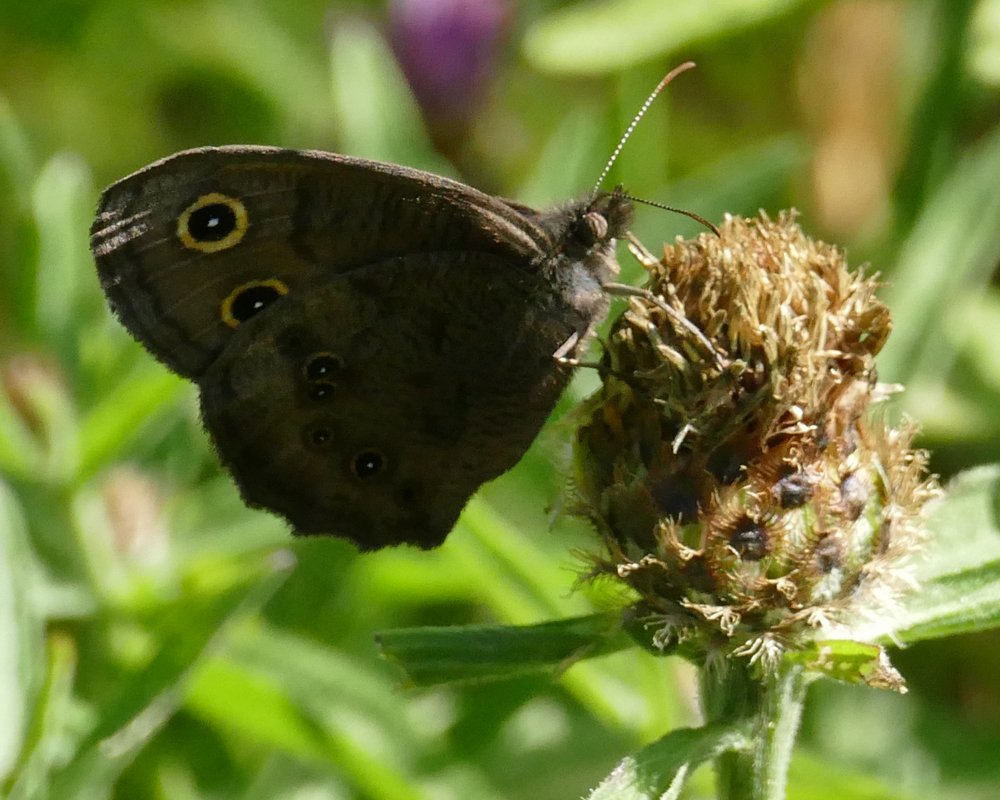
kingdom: Animalia
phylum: Arthropoda
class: Insecta
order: Lepidoptera
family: Nymphalidae
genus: Cercyonis
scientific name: Cercyonis pegala
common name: Common Wood-Nymph
